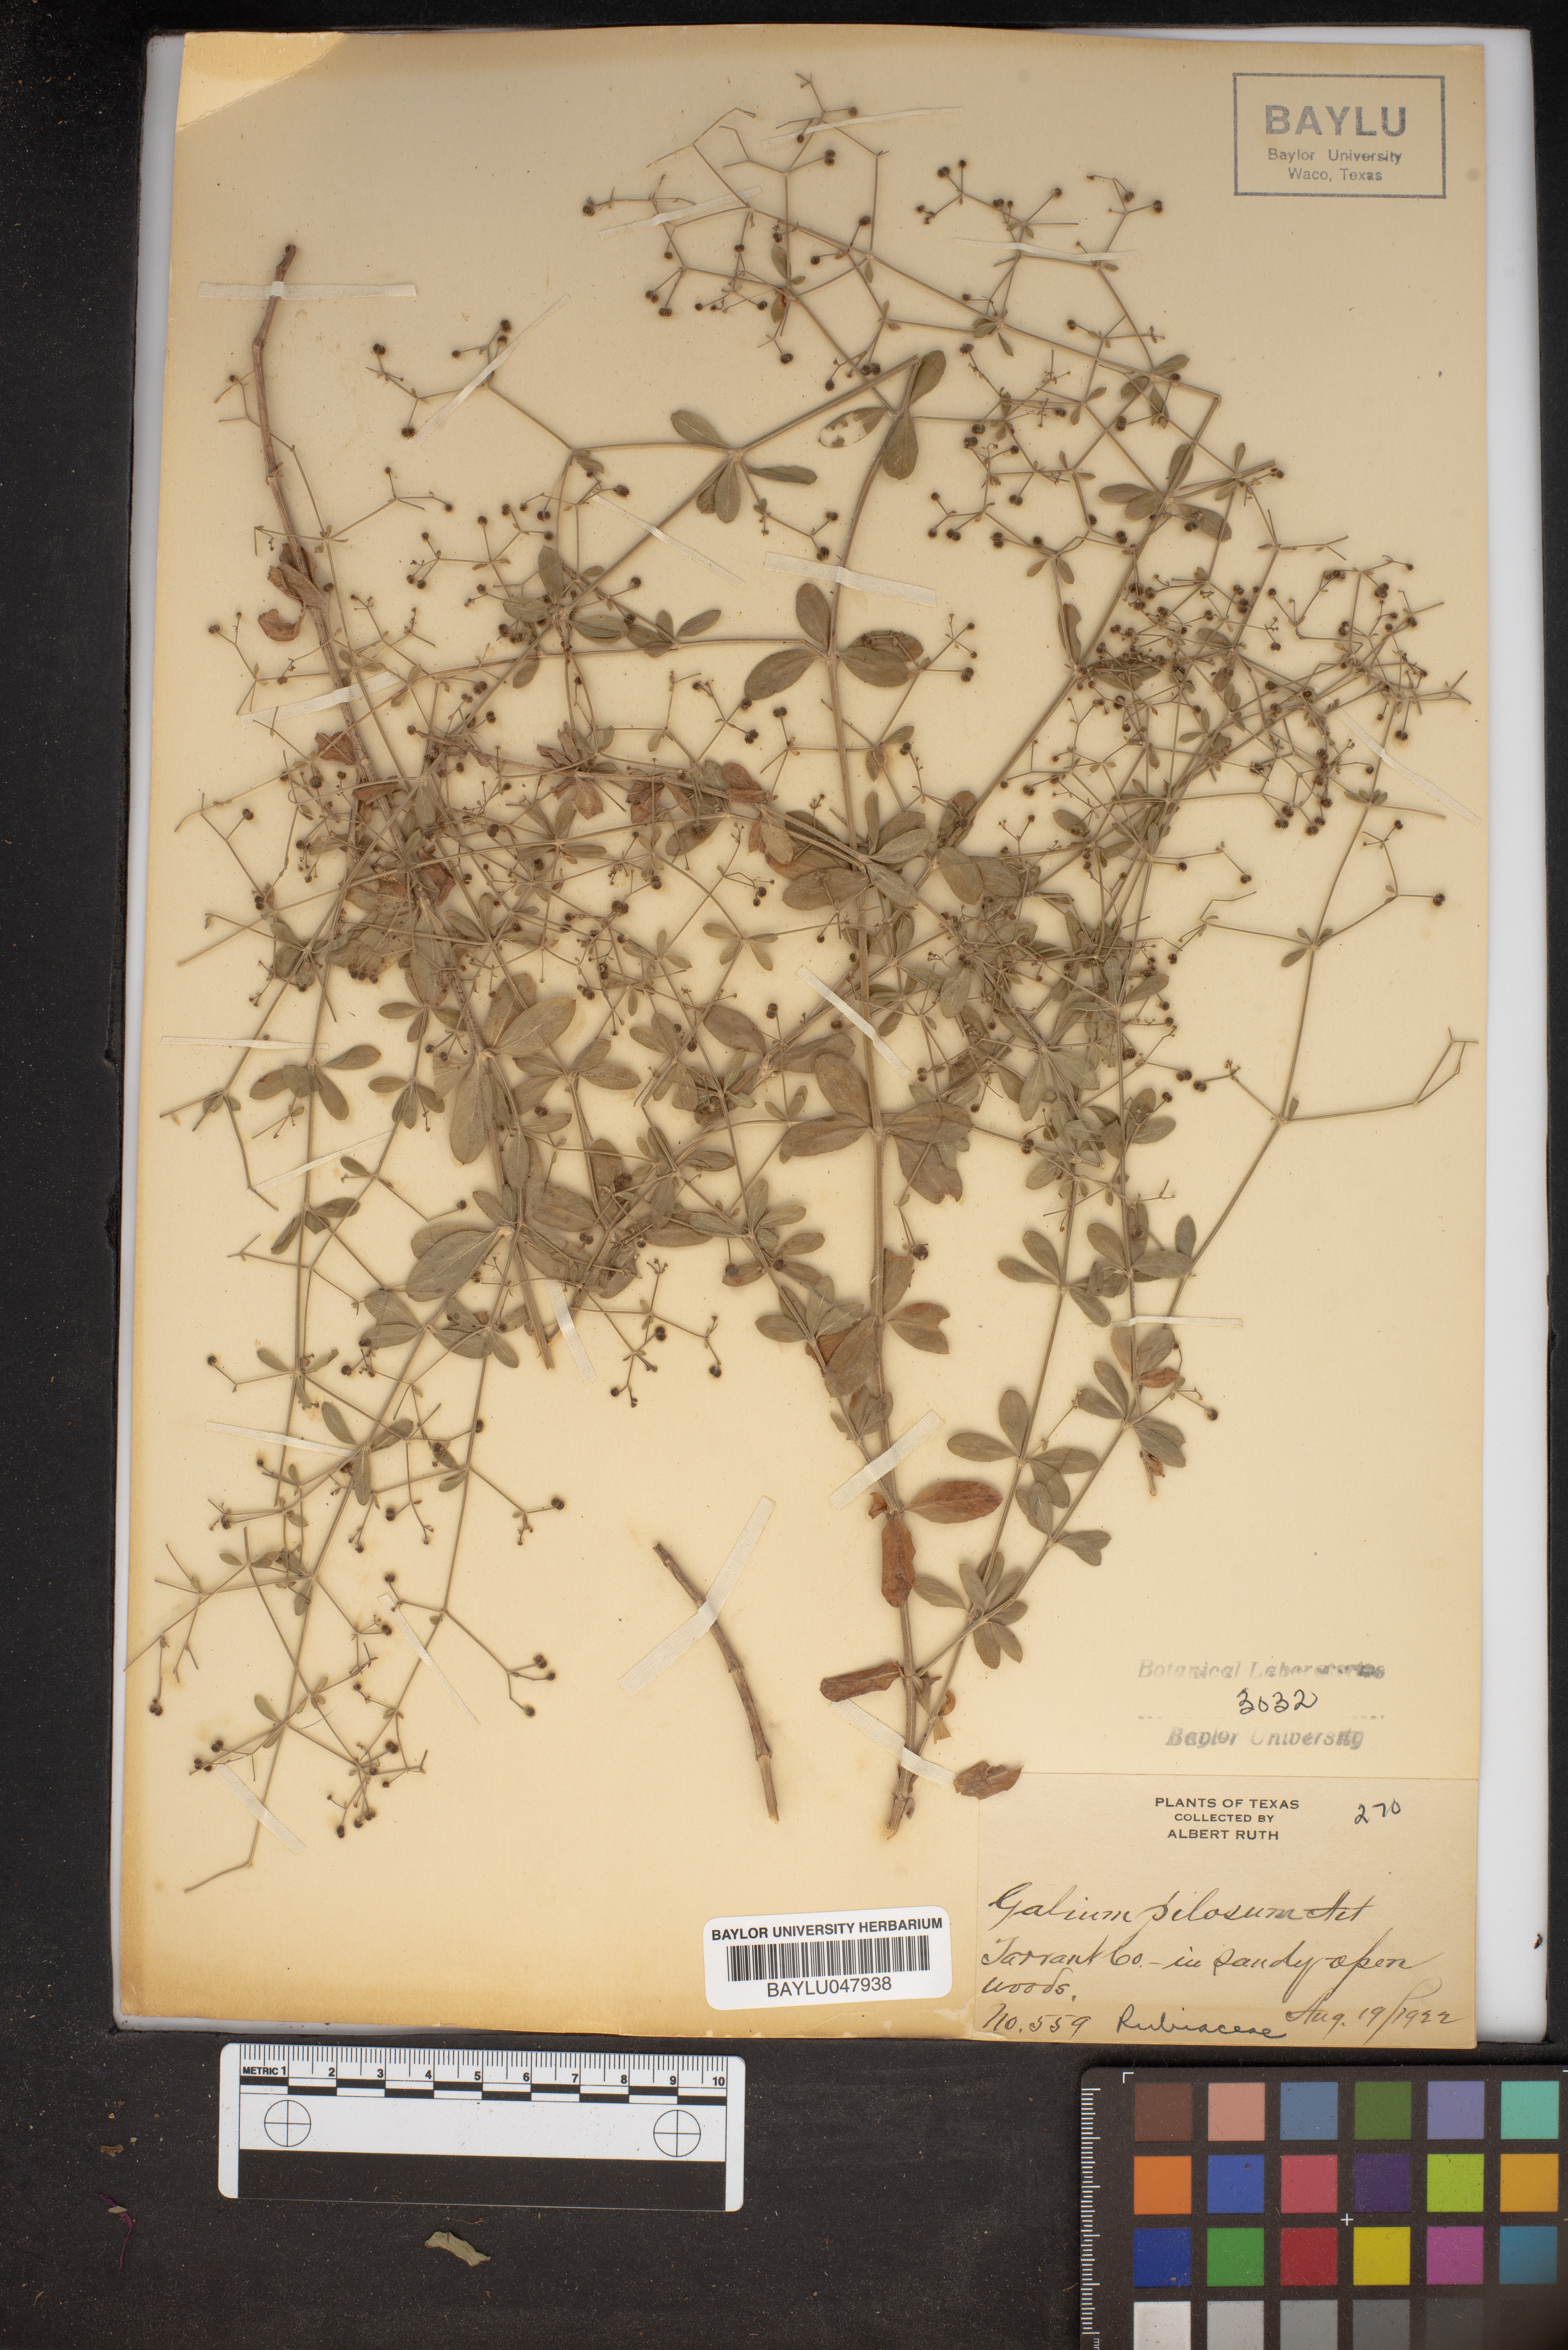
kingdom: Plantae
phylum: Tracheophyta
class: Magnoliopsida
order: Gentianales
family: Rubiaceae
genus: Galium
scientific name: Galium pilosum
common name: Hairy bedstraw
